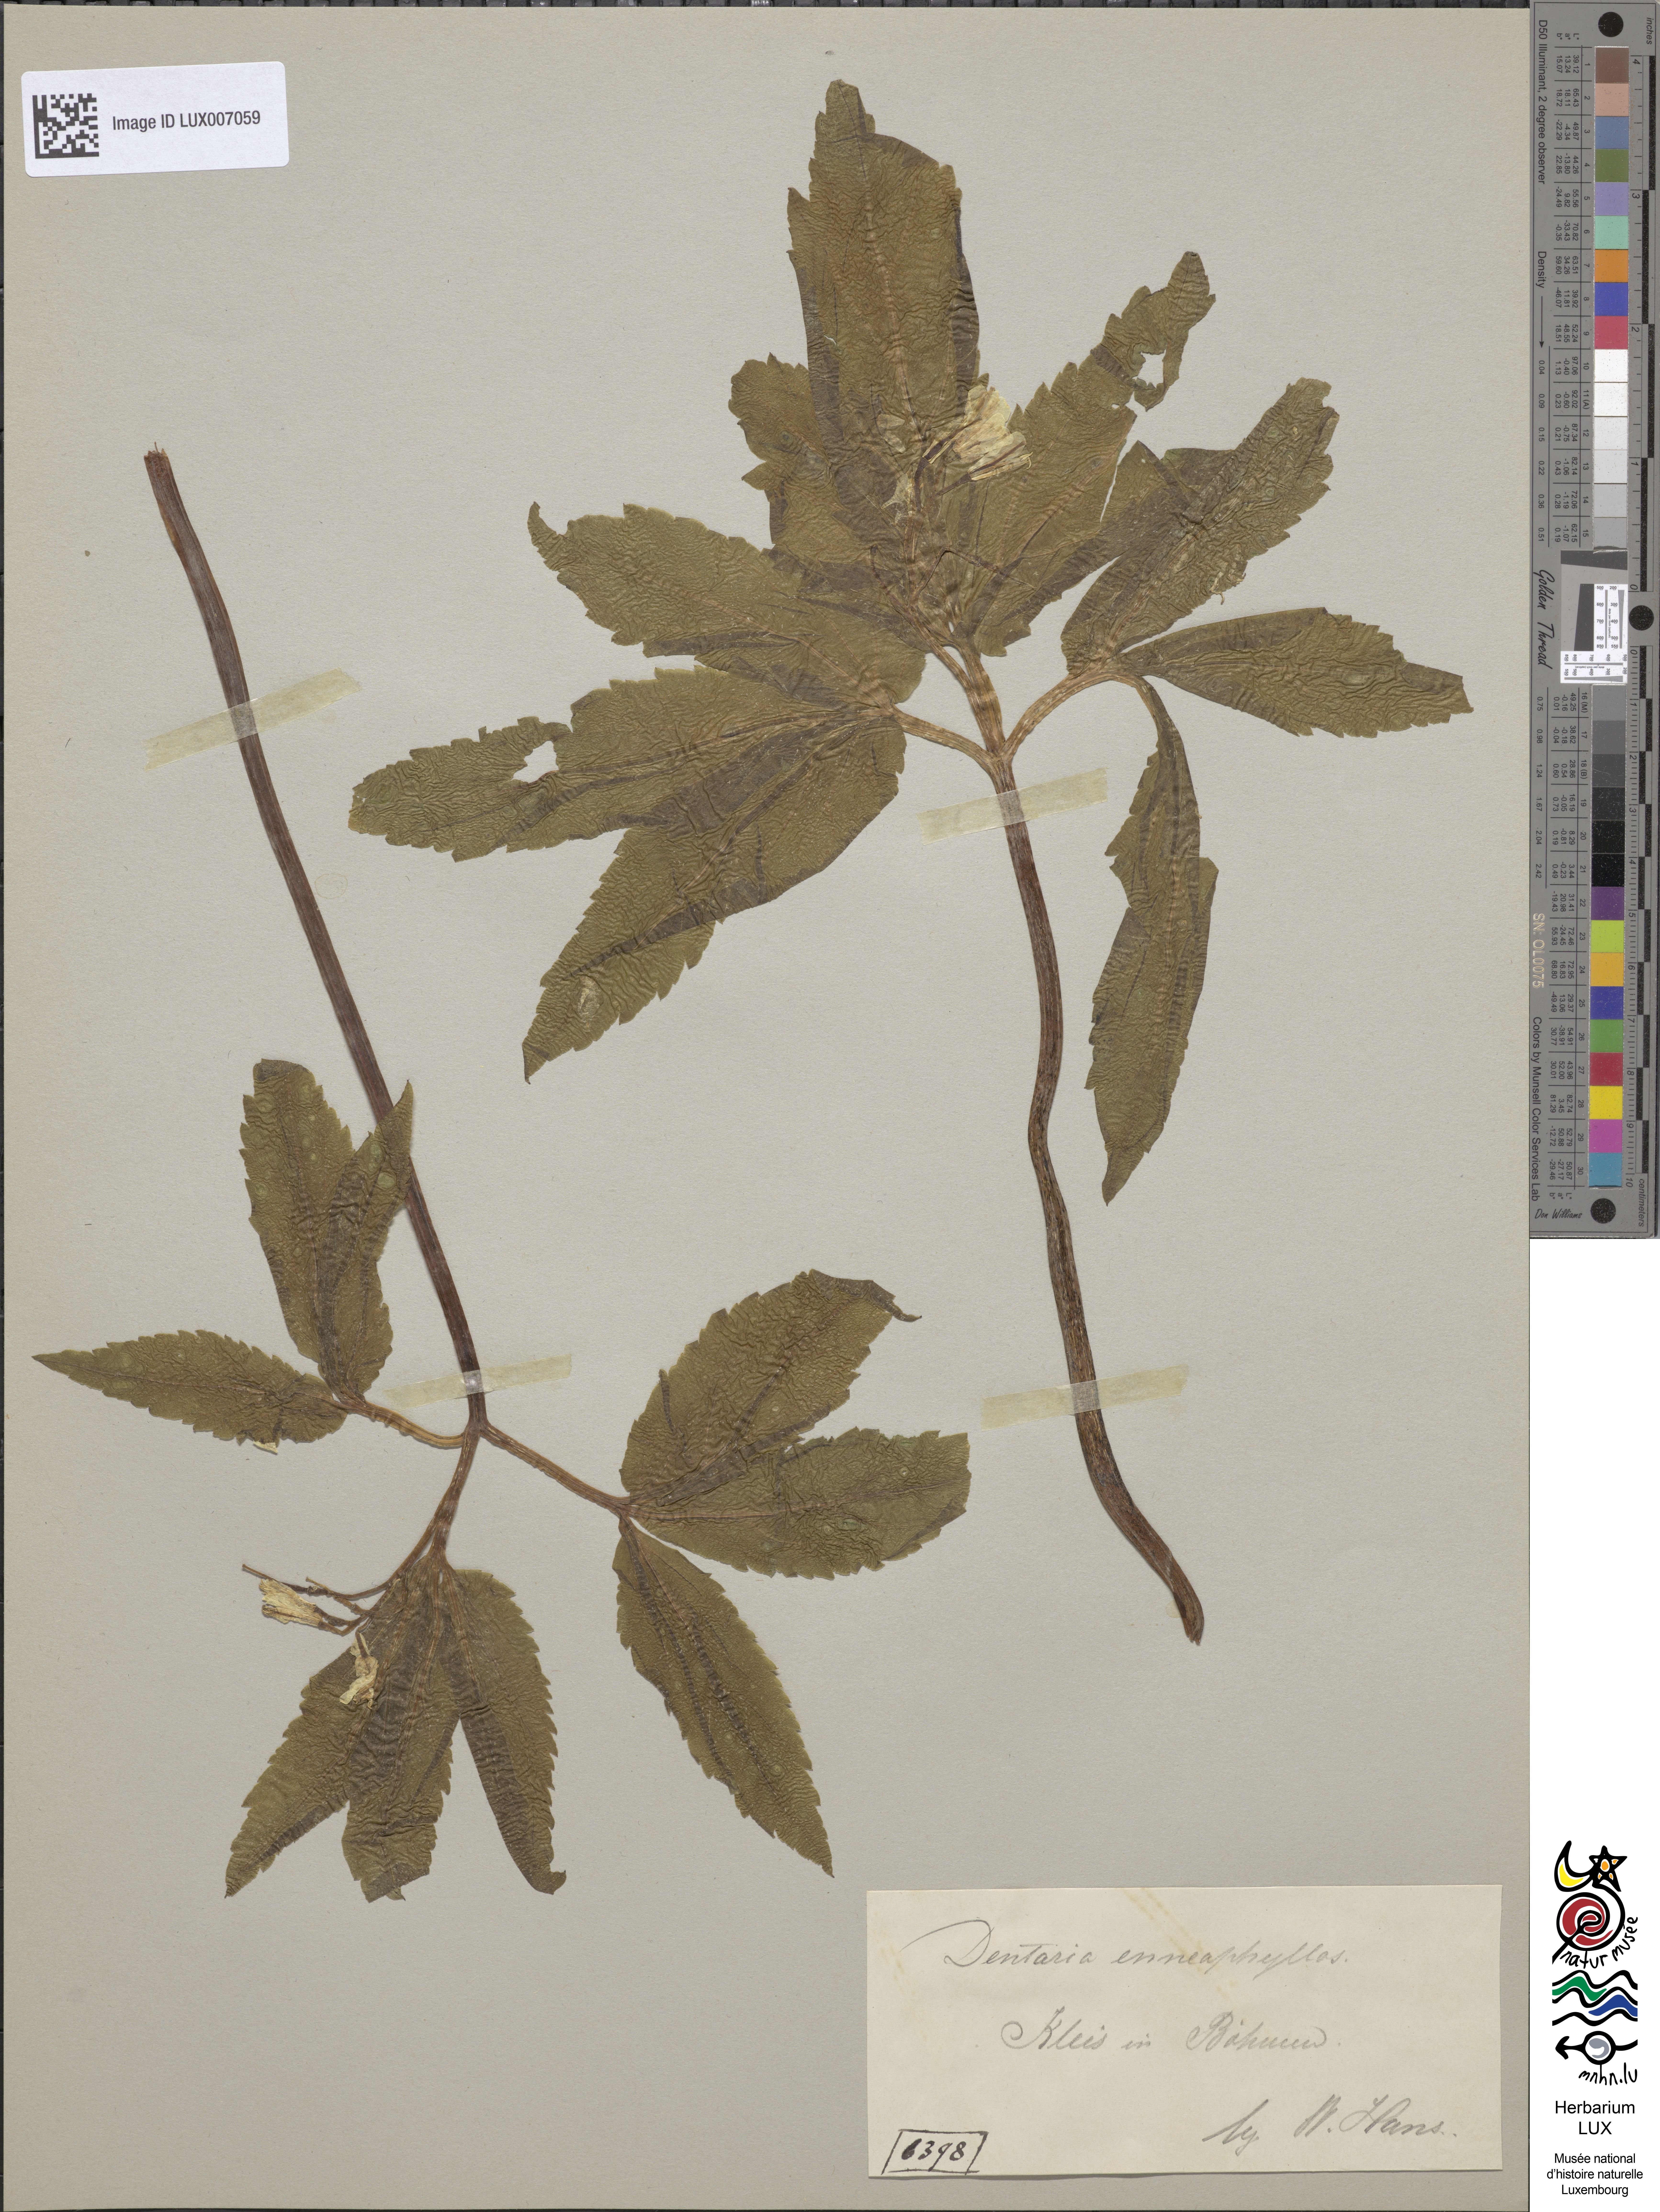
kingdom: Plantae
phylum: Tracheophyta
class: Magnoliopsida
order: Brassicales
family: Brassicaceae
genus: Cardamine
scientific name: Cardamine enneaphyllos
